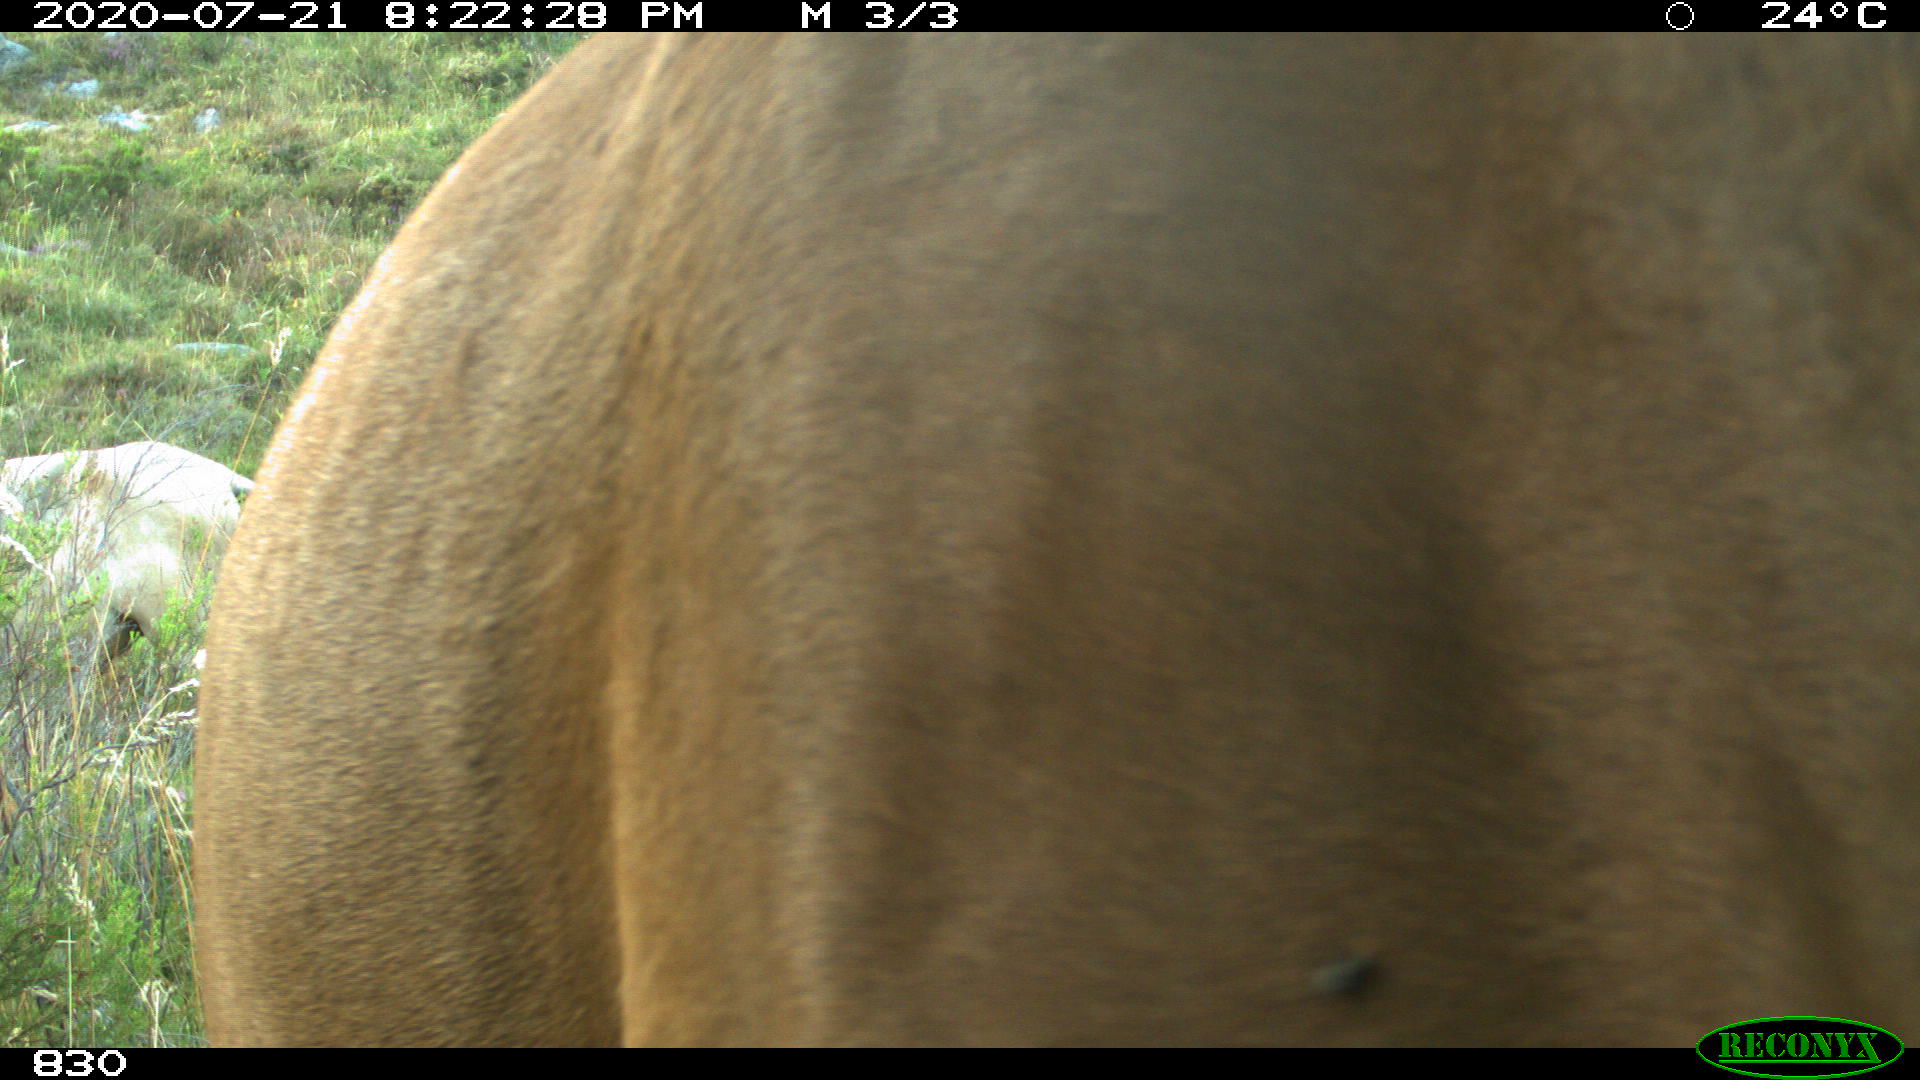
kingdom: Animalia
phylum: Chordata
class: Mammalia
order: Perissodactyla
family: Equidae
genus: Equus
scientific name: Equus caballus
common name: Horse
